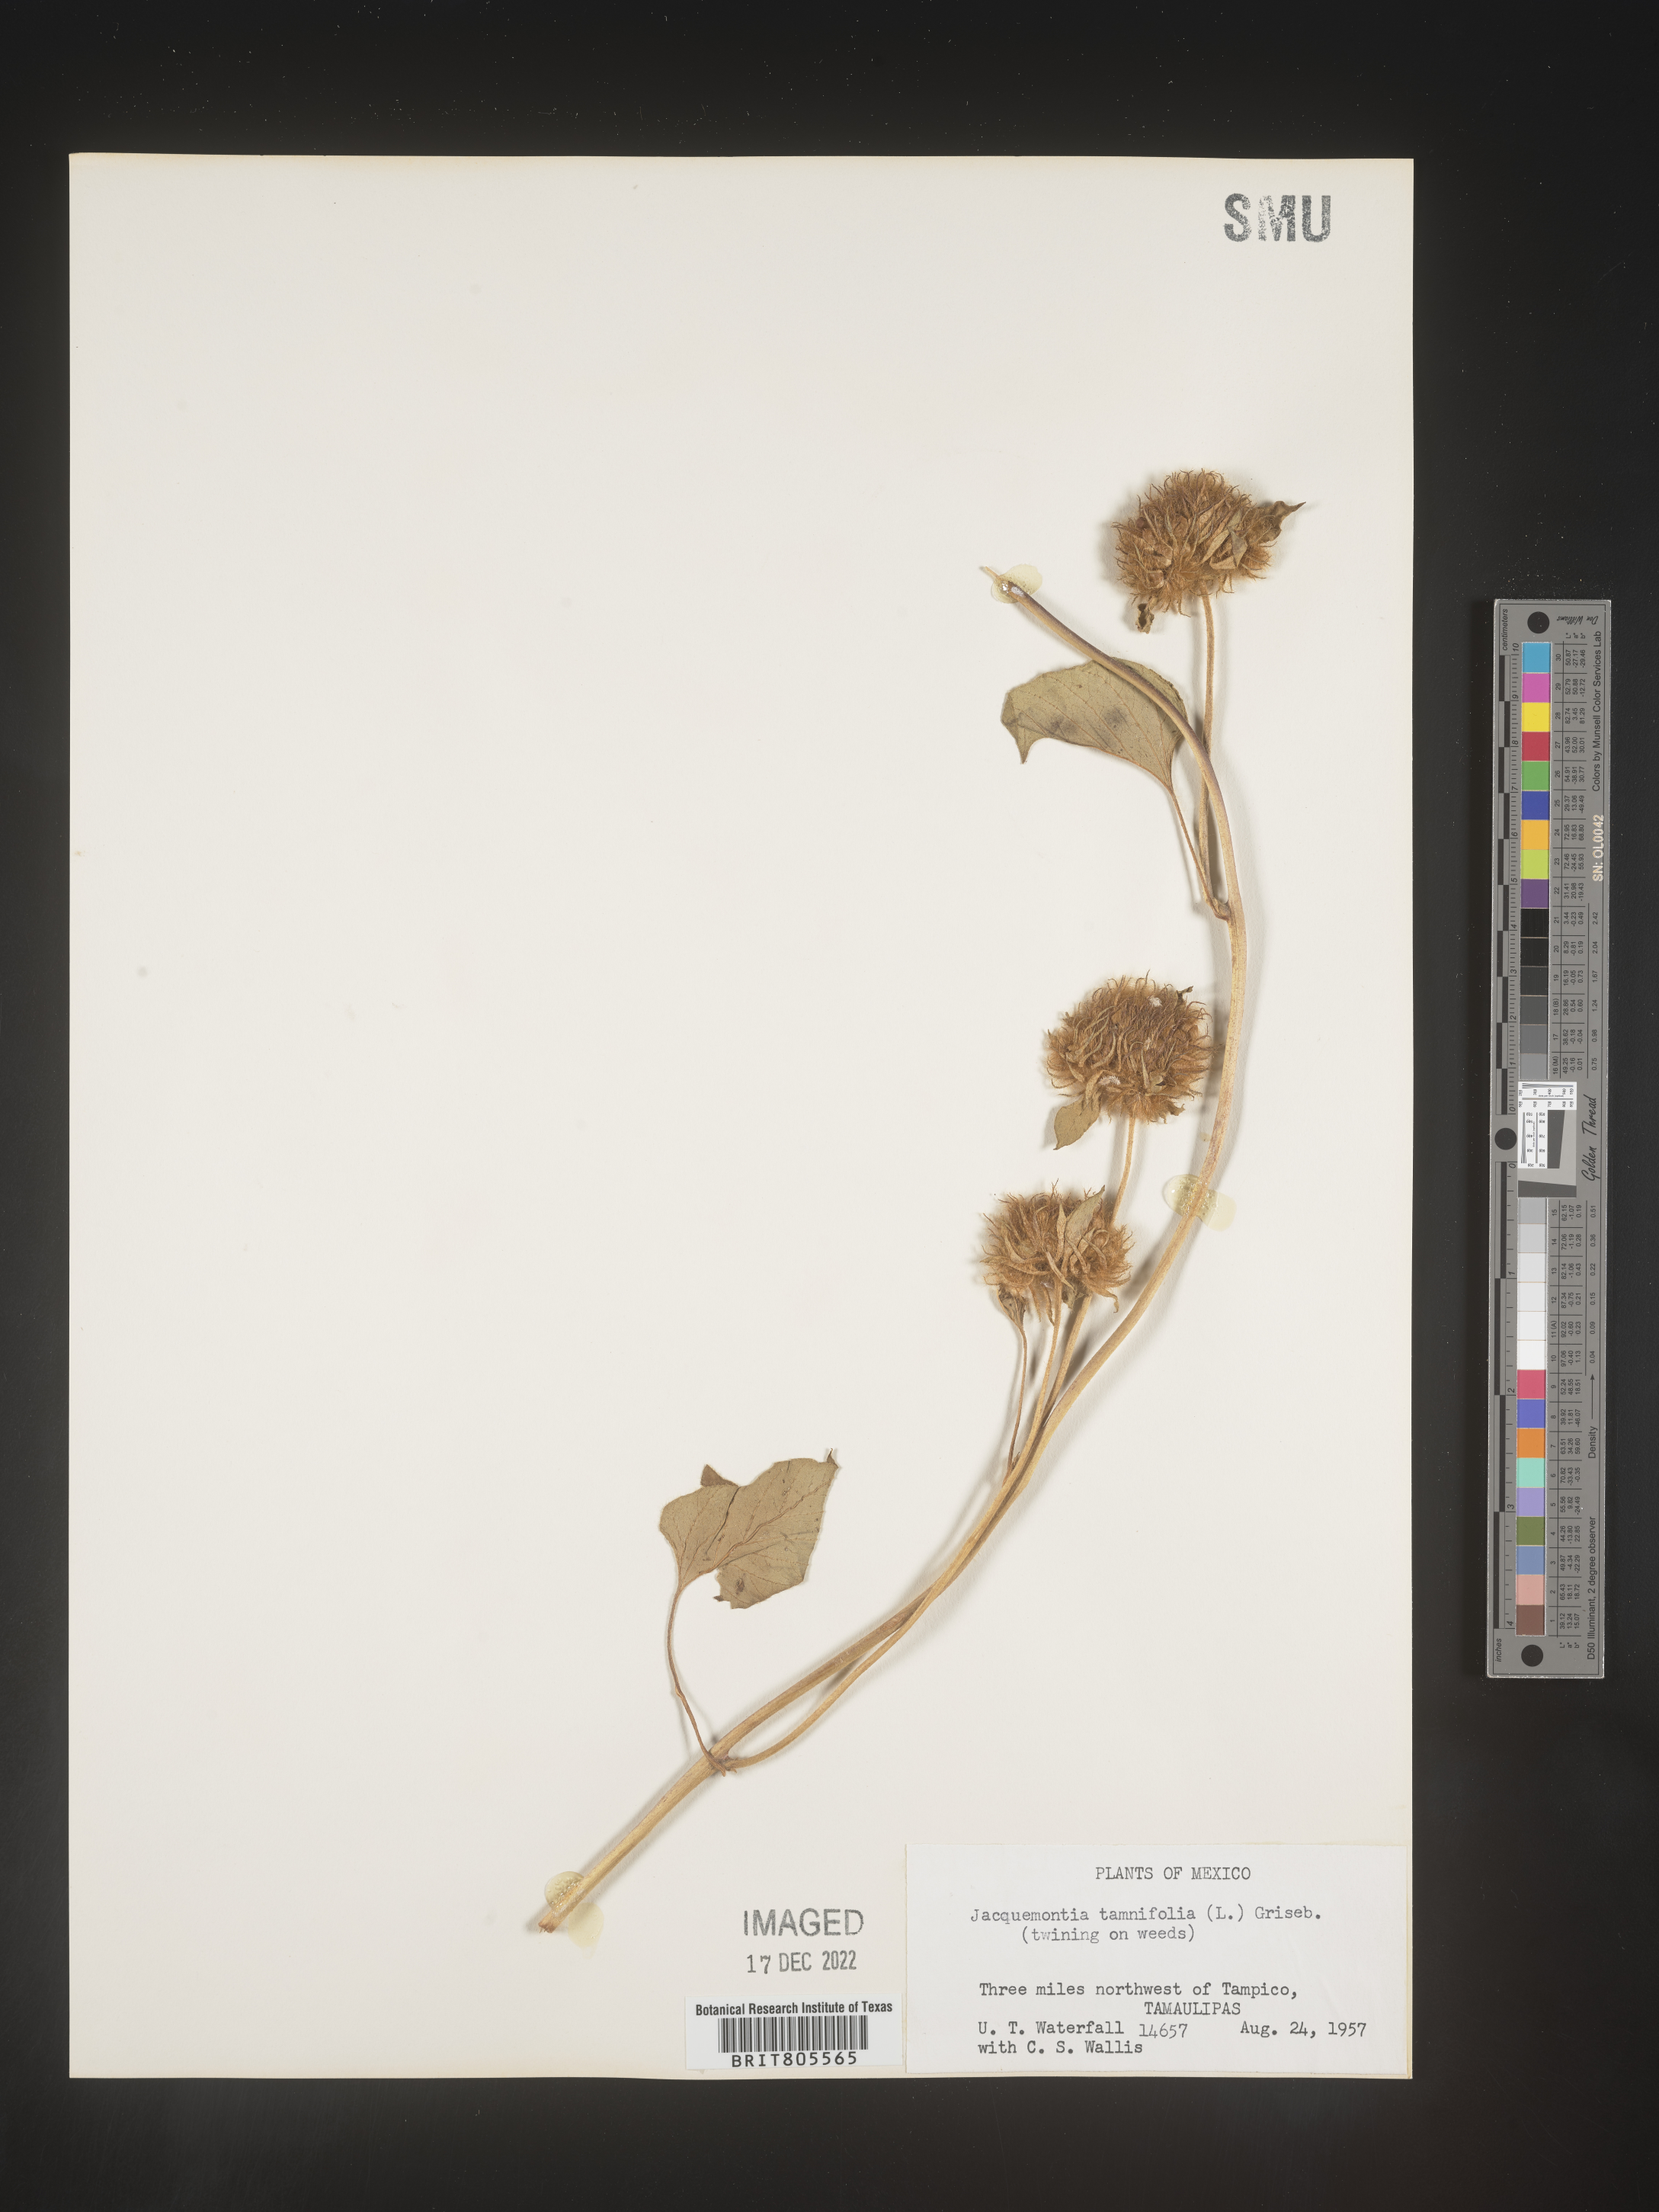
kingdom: Plantae
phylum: Tracheophyta
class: Magnoliopsida
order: Solanales
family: Convolvulaceae
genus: Jacquemontia
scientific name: Jacquemontia
